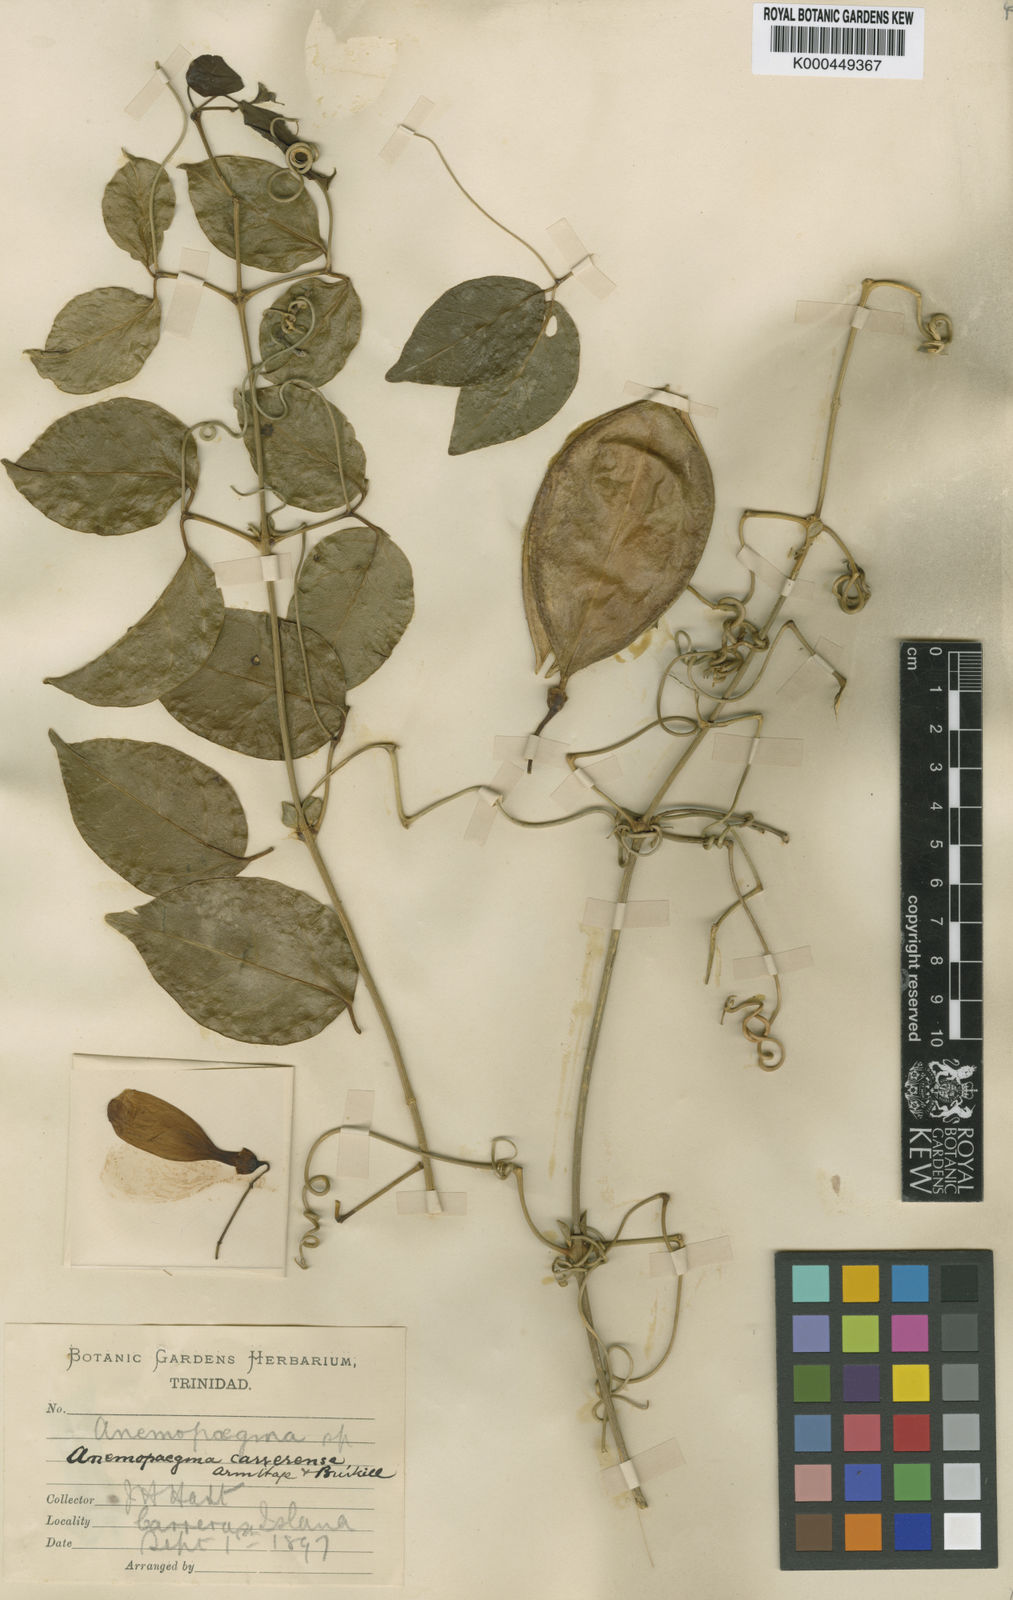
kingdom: Plantae
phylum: Tracheophyta
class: Magnoliopsida
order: Lamiales
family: Bignoniaceae
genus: Anemopaegma
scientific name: Anemopaegma karstenii
